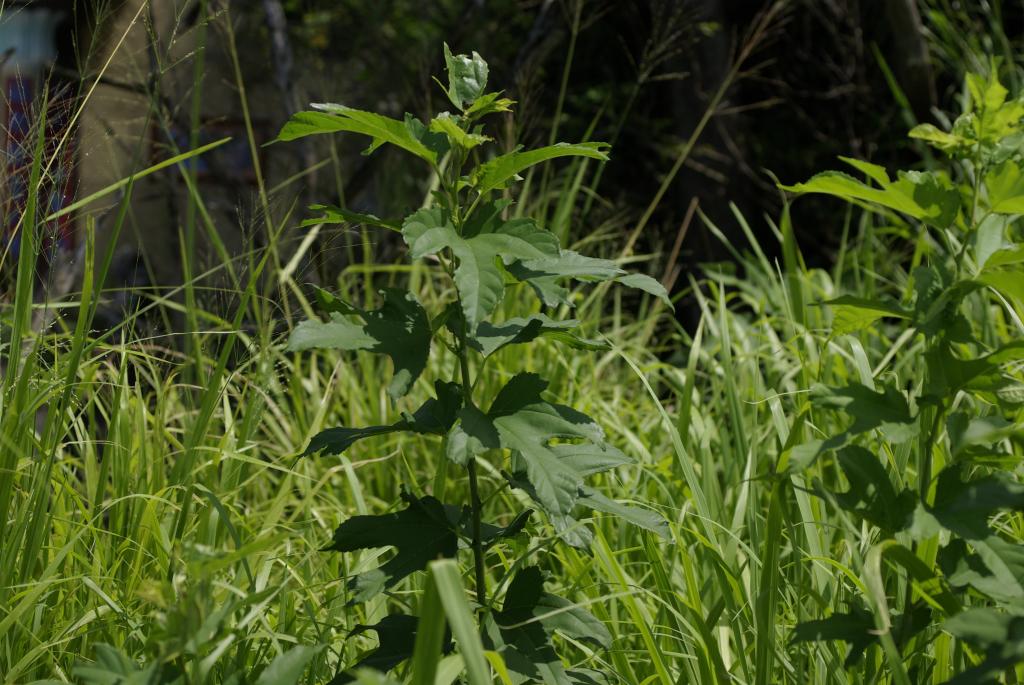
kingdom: Plantae
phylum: Tracheophyta
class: Magnoliopsida
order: Rosales
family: Moraceae
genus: Broussonetia
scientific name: Broussonetia papyrifera
